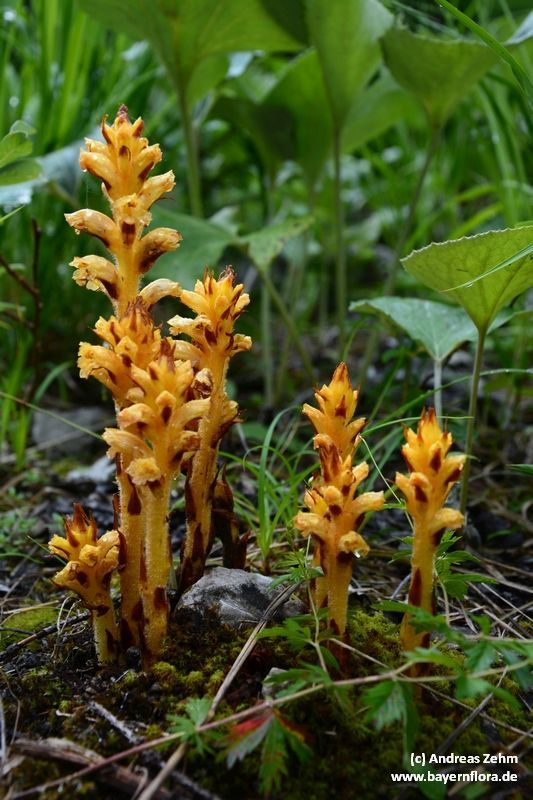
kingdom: Plantae
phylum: Tracheophyta
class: Magnoliopsida
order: Lamiales
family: Orobanchaceae
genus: Orobanche
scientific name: Orobanche flava
